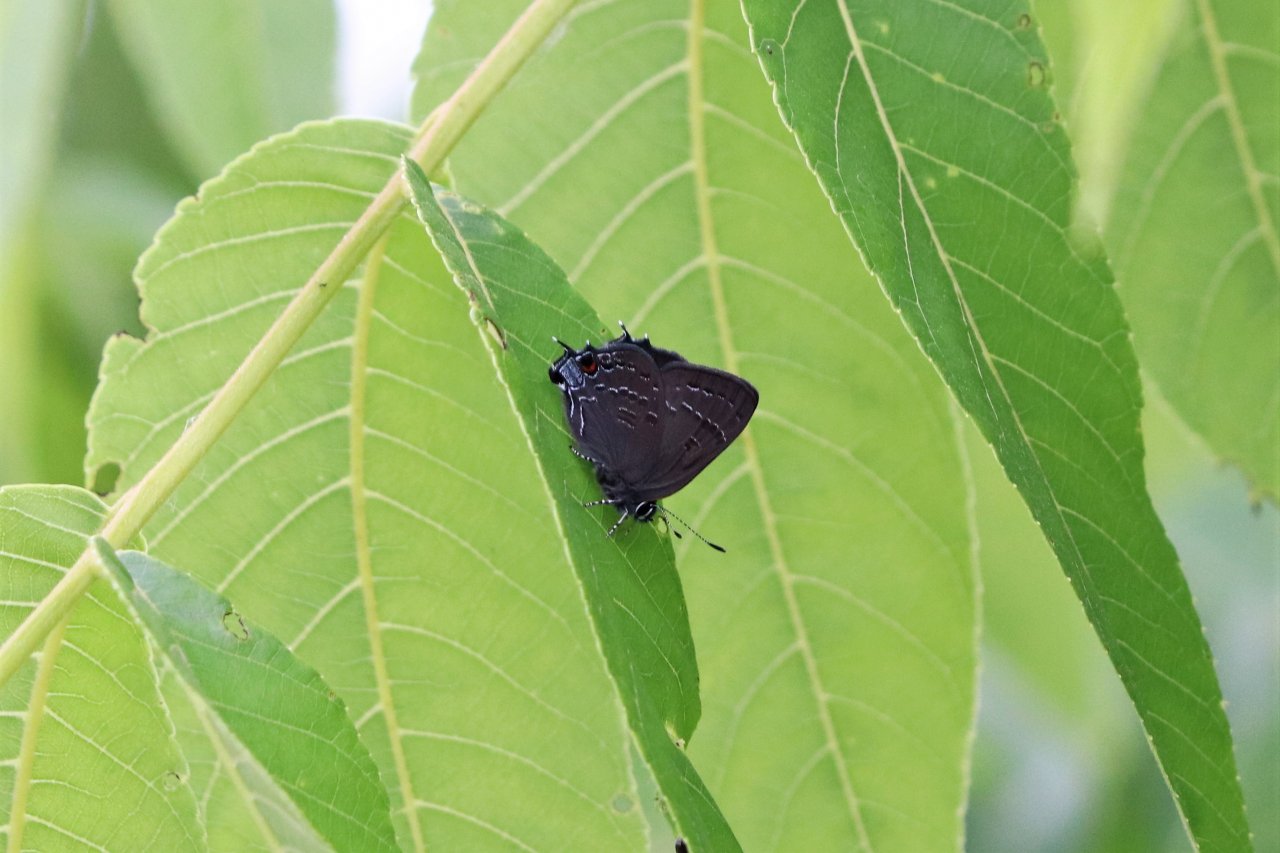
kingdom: Animalia
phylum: Arthropoda
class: Insecta
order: Lepidoptera
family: Lycaenidae
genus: Satyrium
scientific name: Satyrium calanus
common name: Banded Hairstreak
